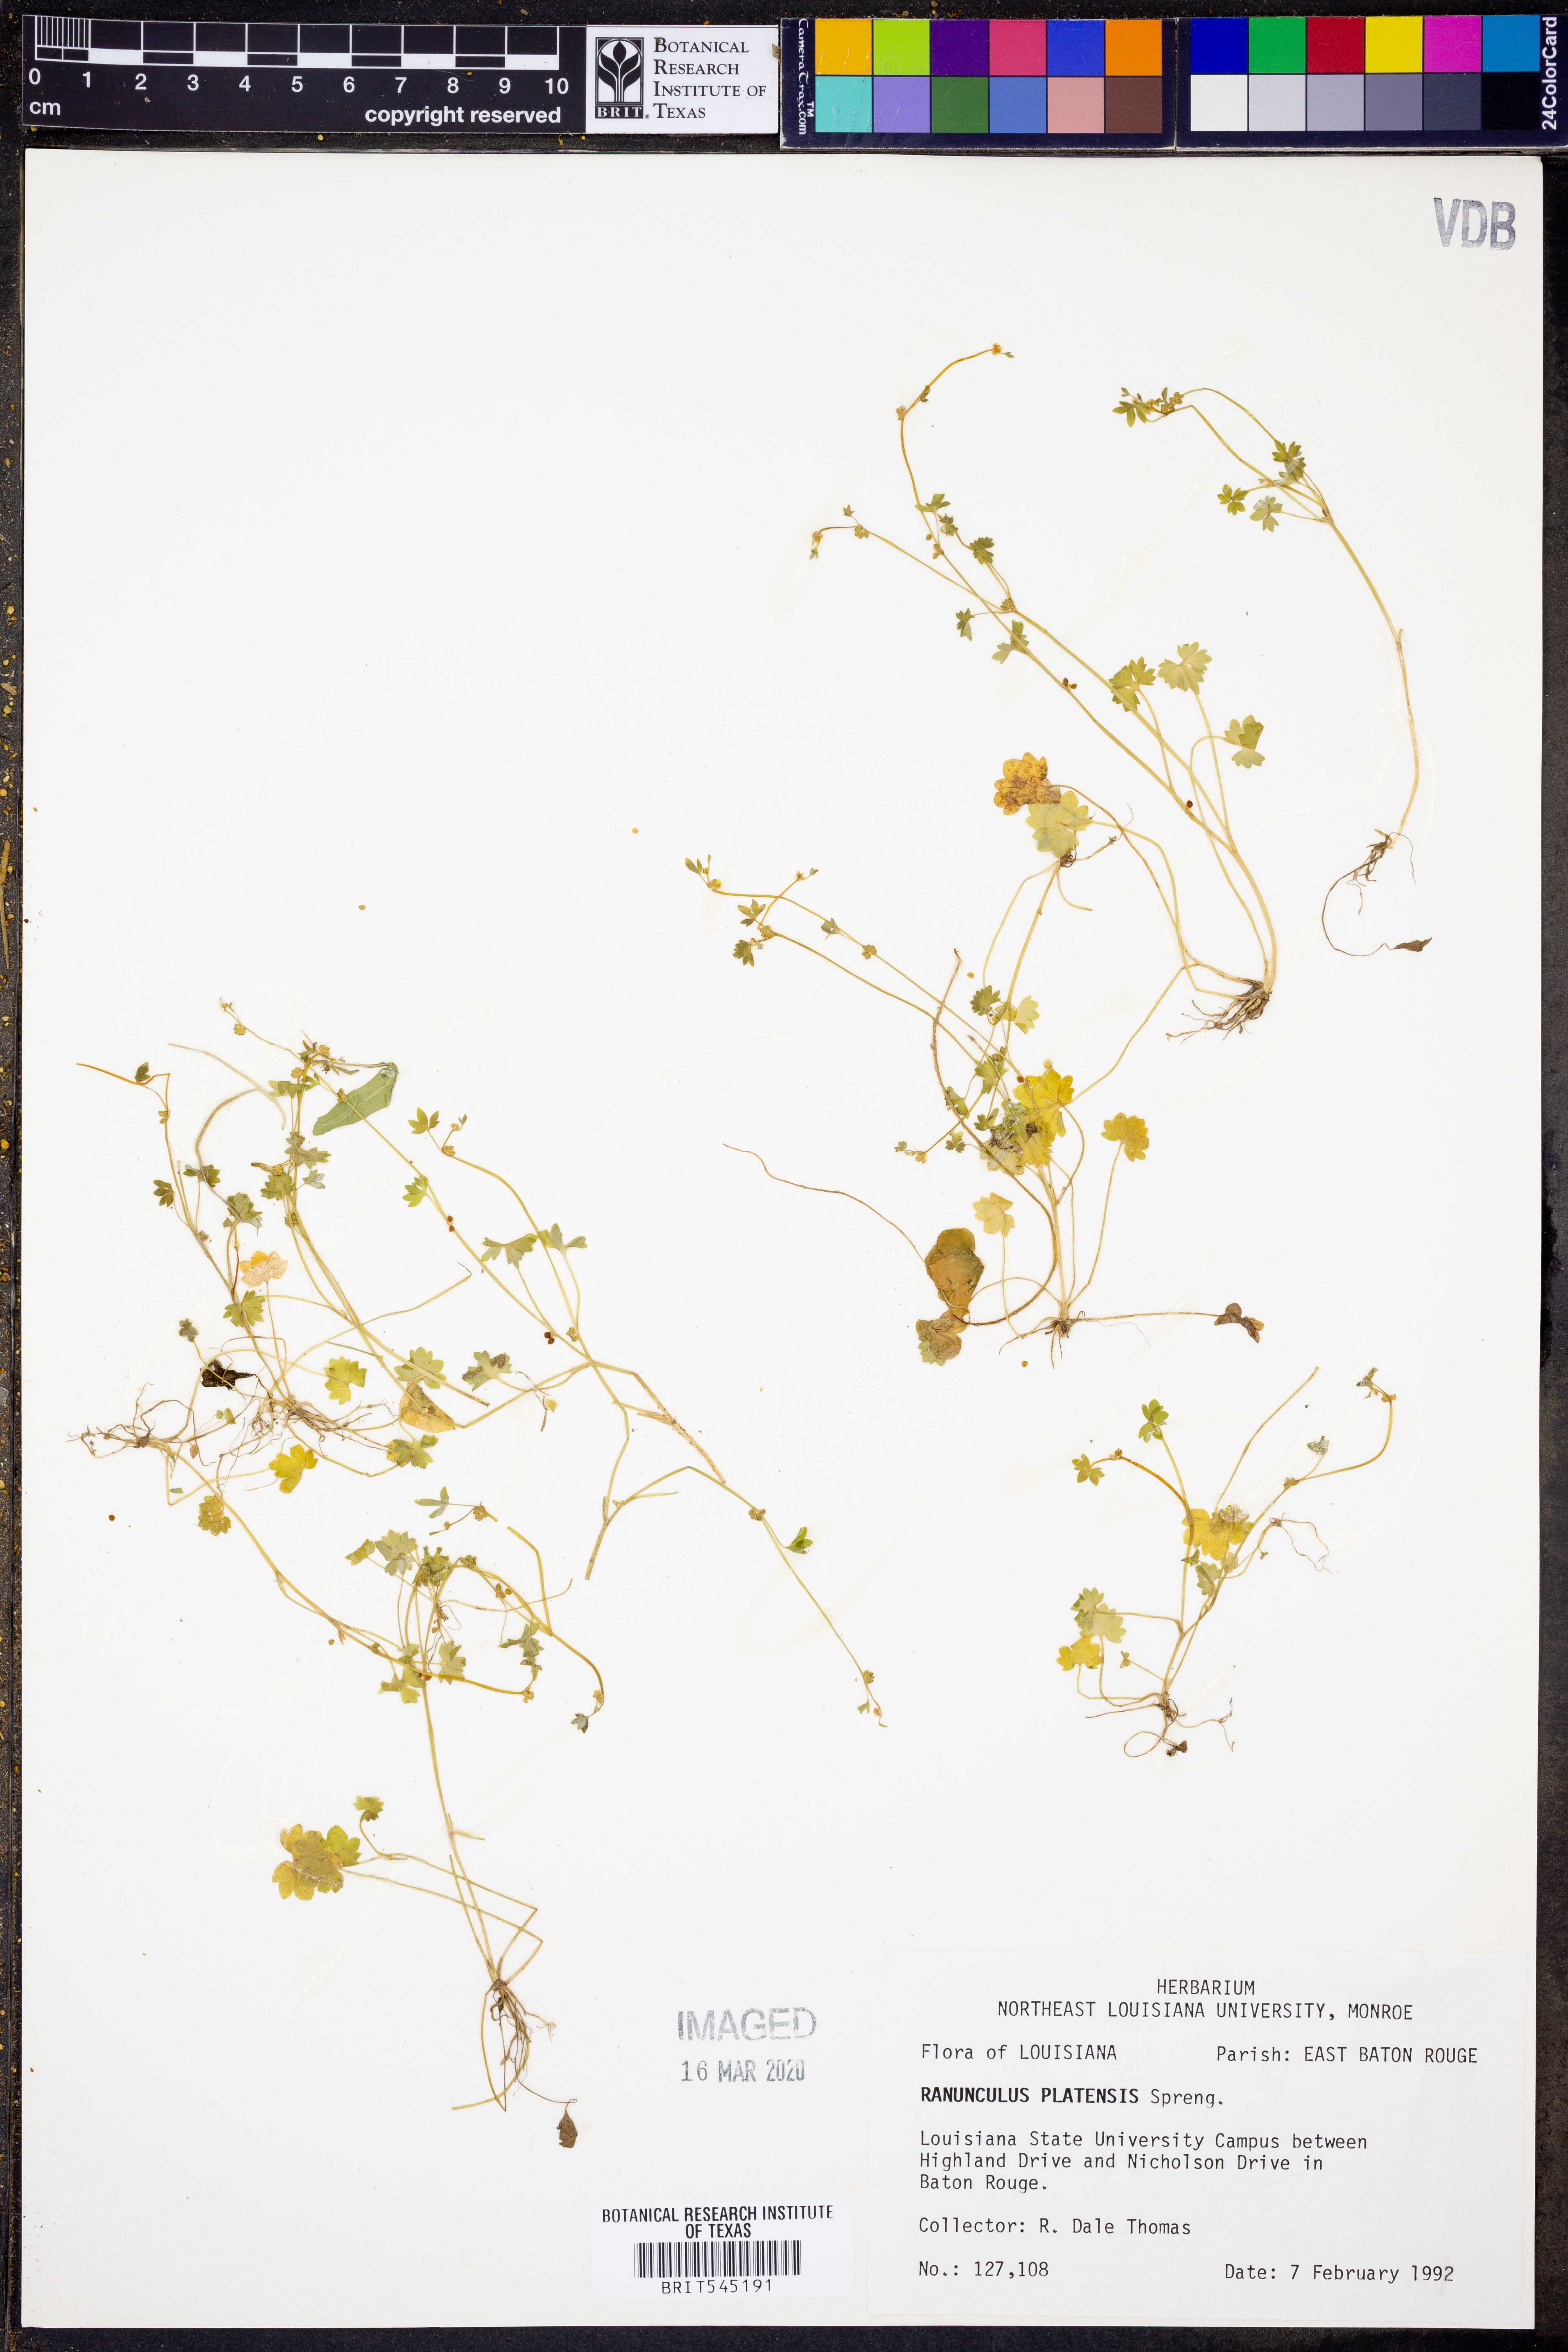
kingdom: Plantae
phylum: Tracheophyta
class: Magnoliopsida
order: Ranunculales
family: Ranunculaceae
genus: Ranunculus
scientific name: Ranunculus platensis
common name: Prairie buttercup
